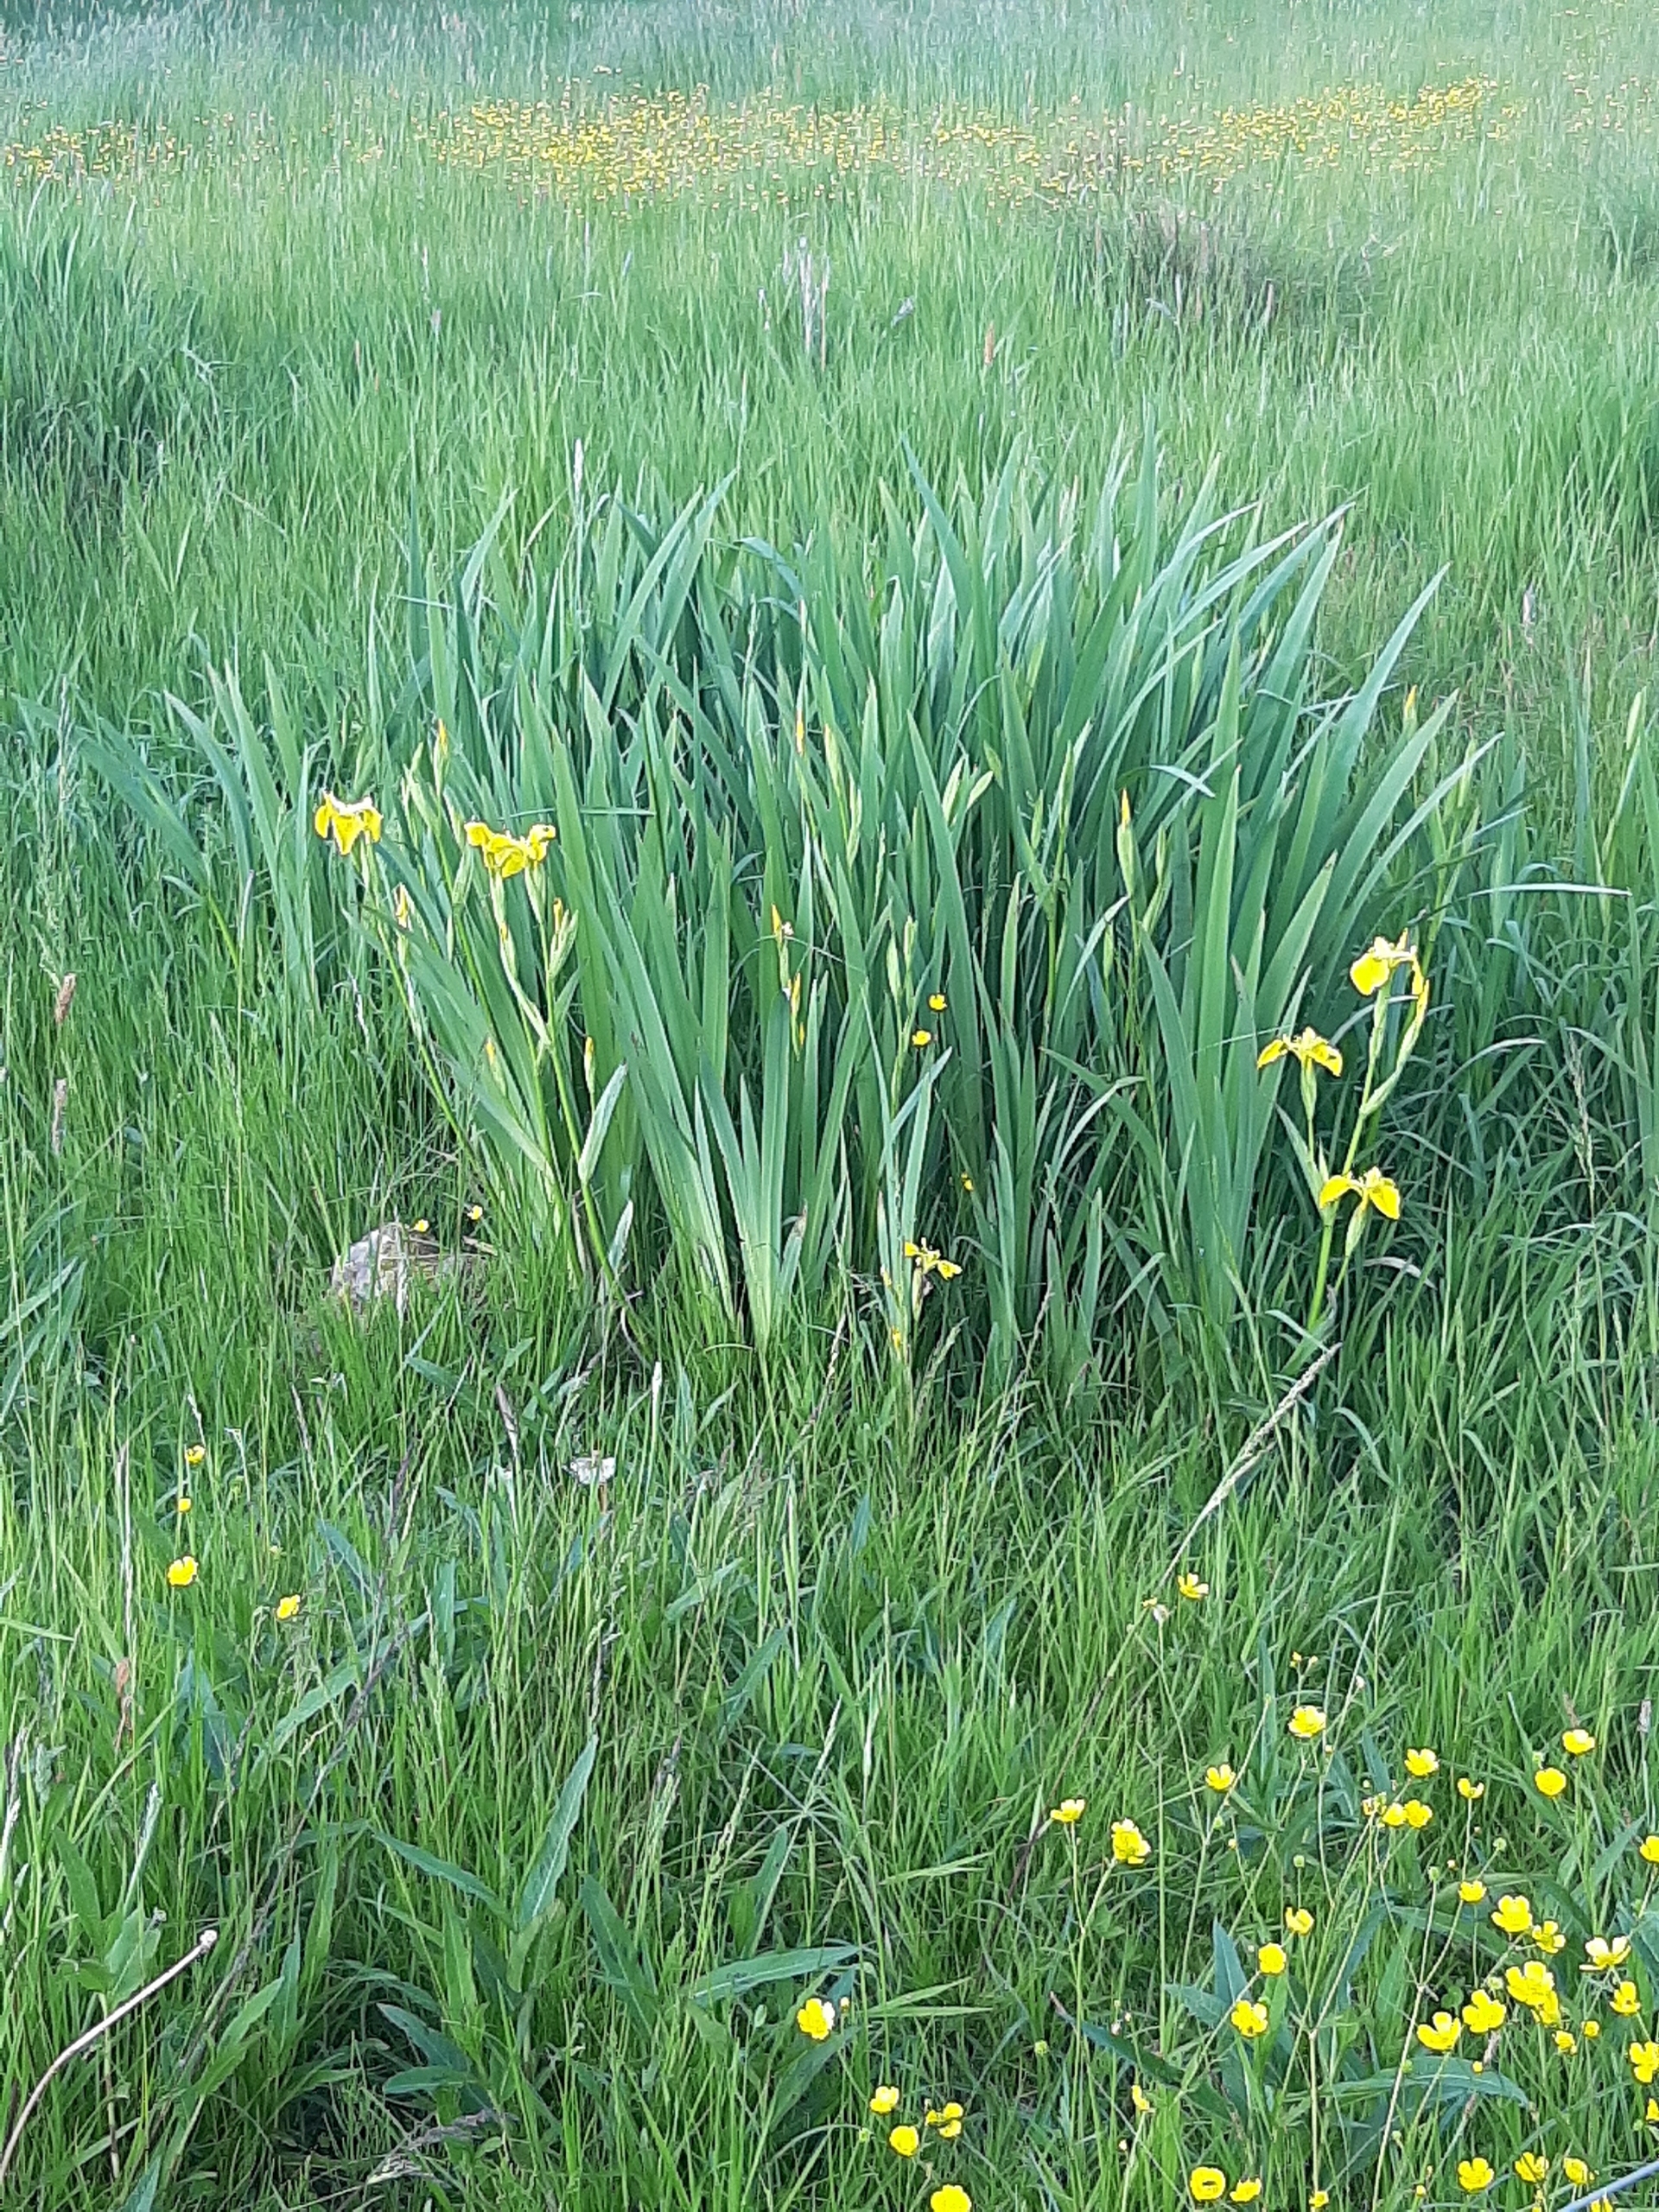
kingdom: Plantae
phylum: Tracheophyta
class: Liliopsida
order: Asparagales
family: Iridaceae
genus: Iris
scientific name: Iris pseudacorus
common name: Gul iris
